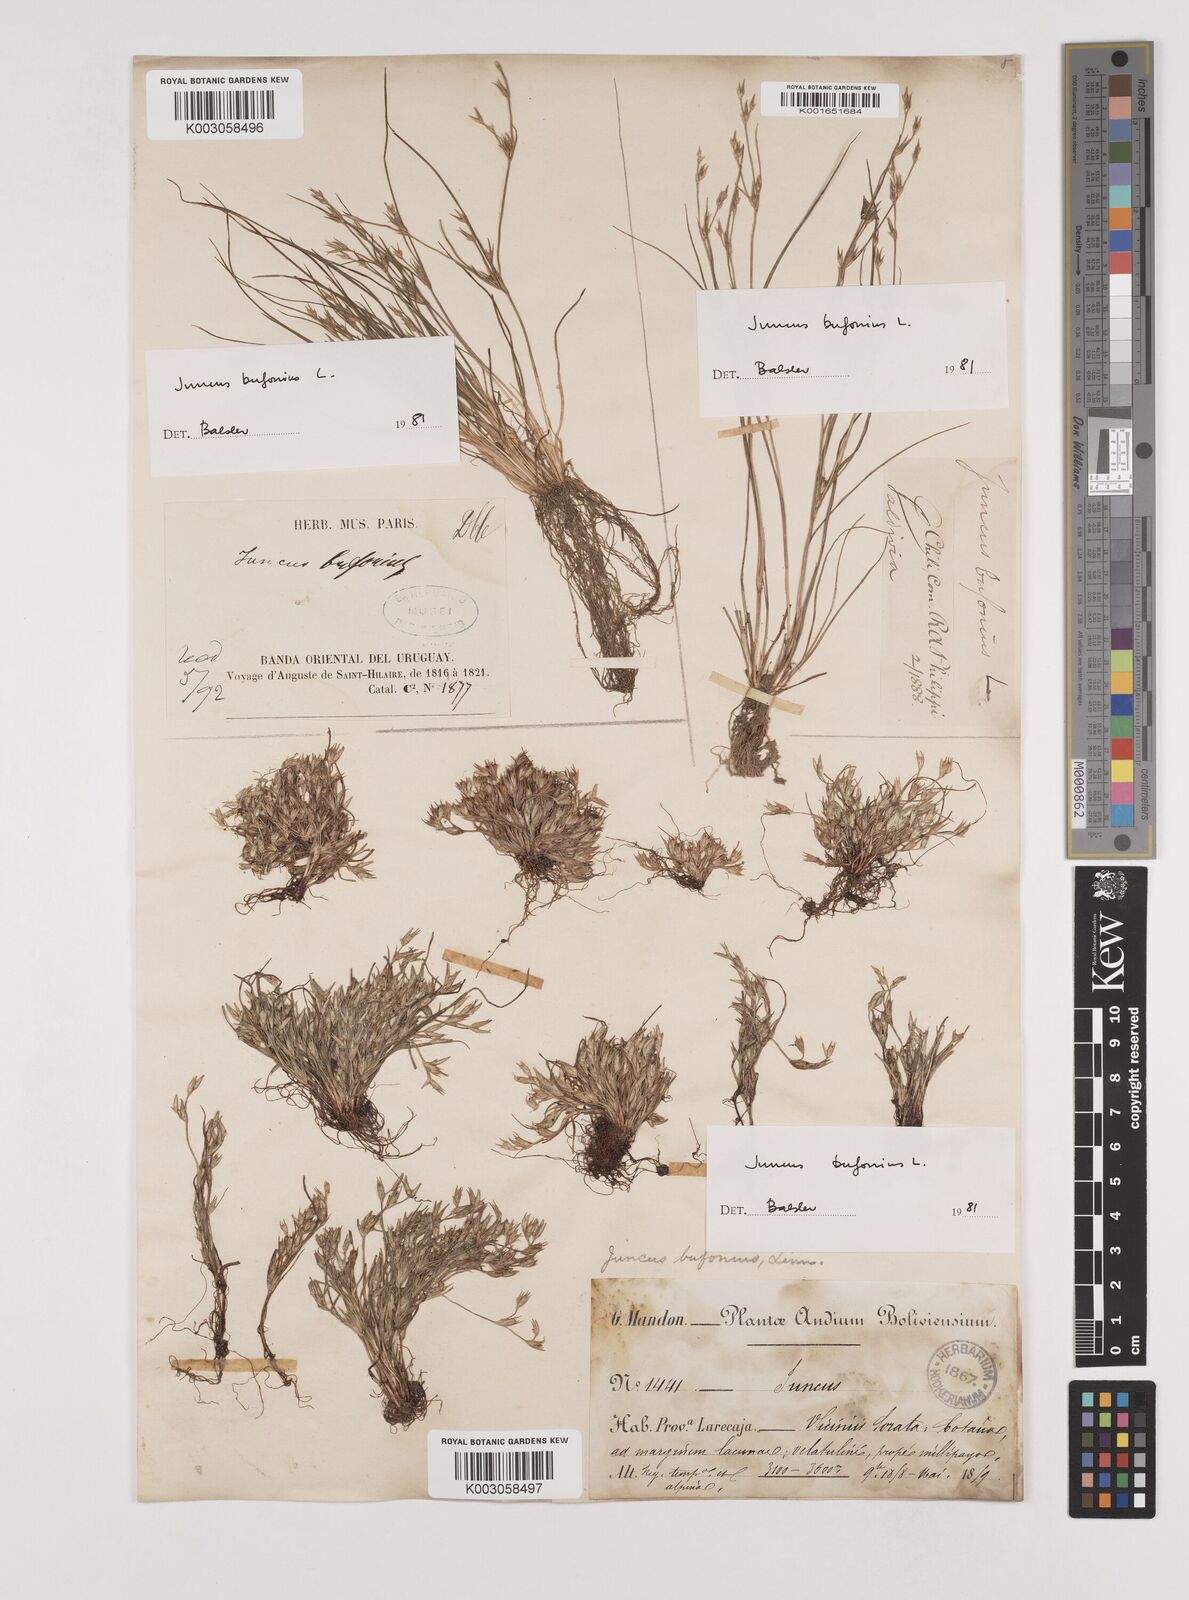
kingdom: Plantae
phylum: Tracheophyta
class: Liliopsida
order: Poales
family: Juncaceae
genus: Juncus
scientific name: Juncus bufonius
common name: Toad rush
